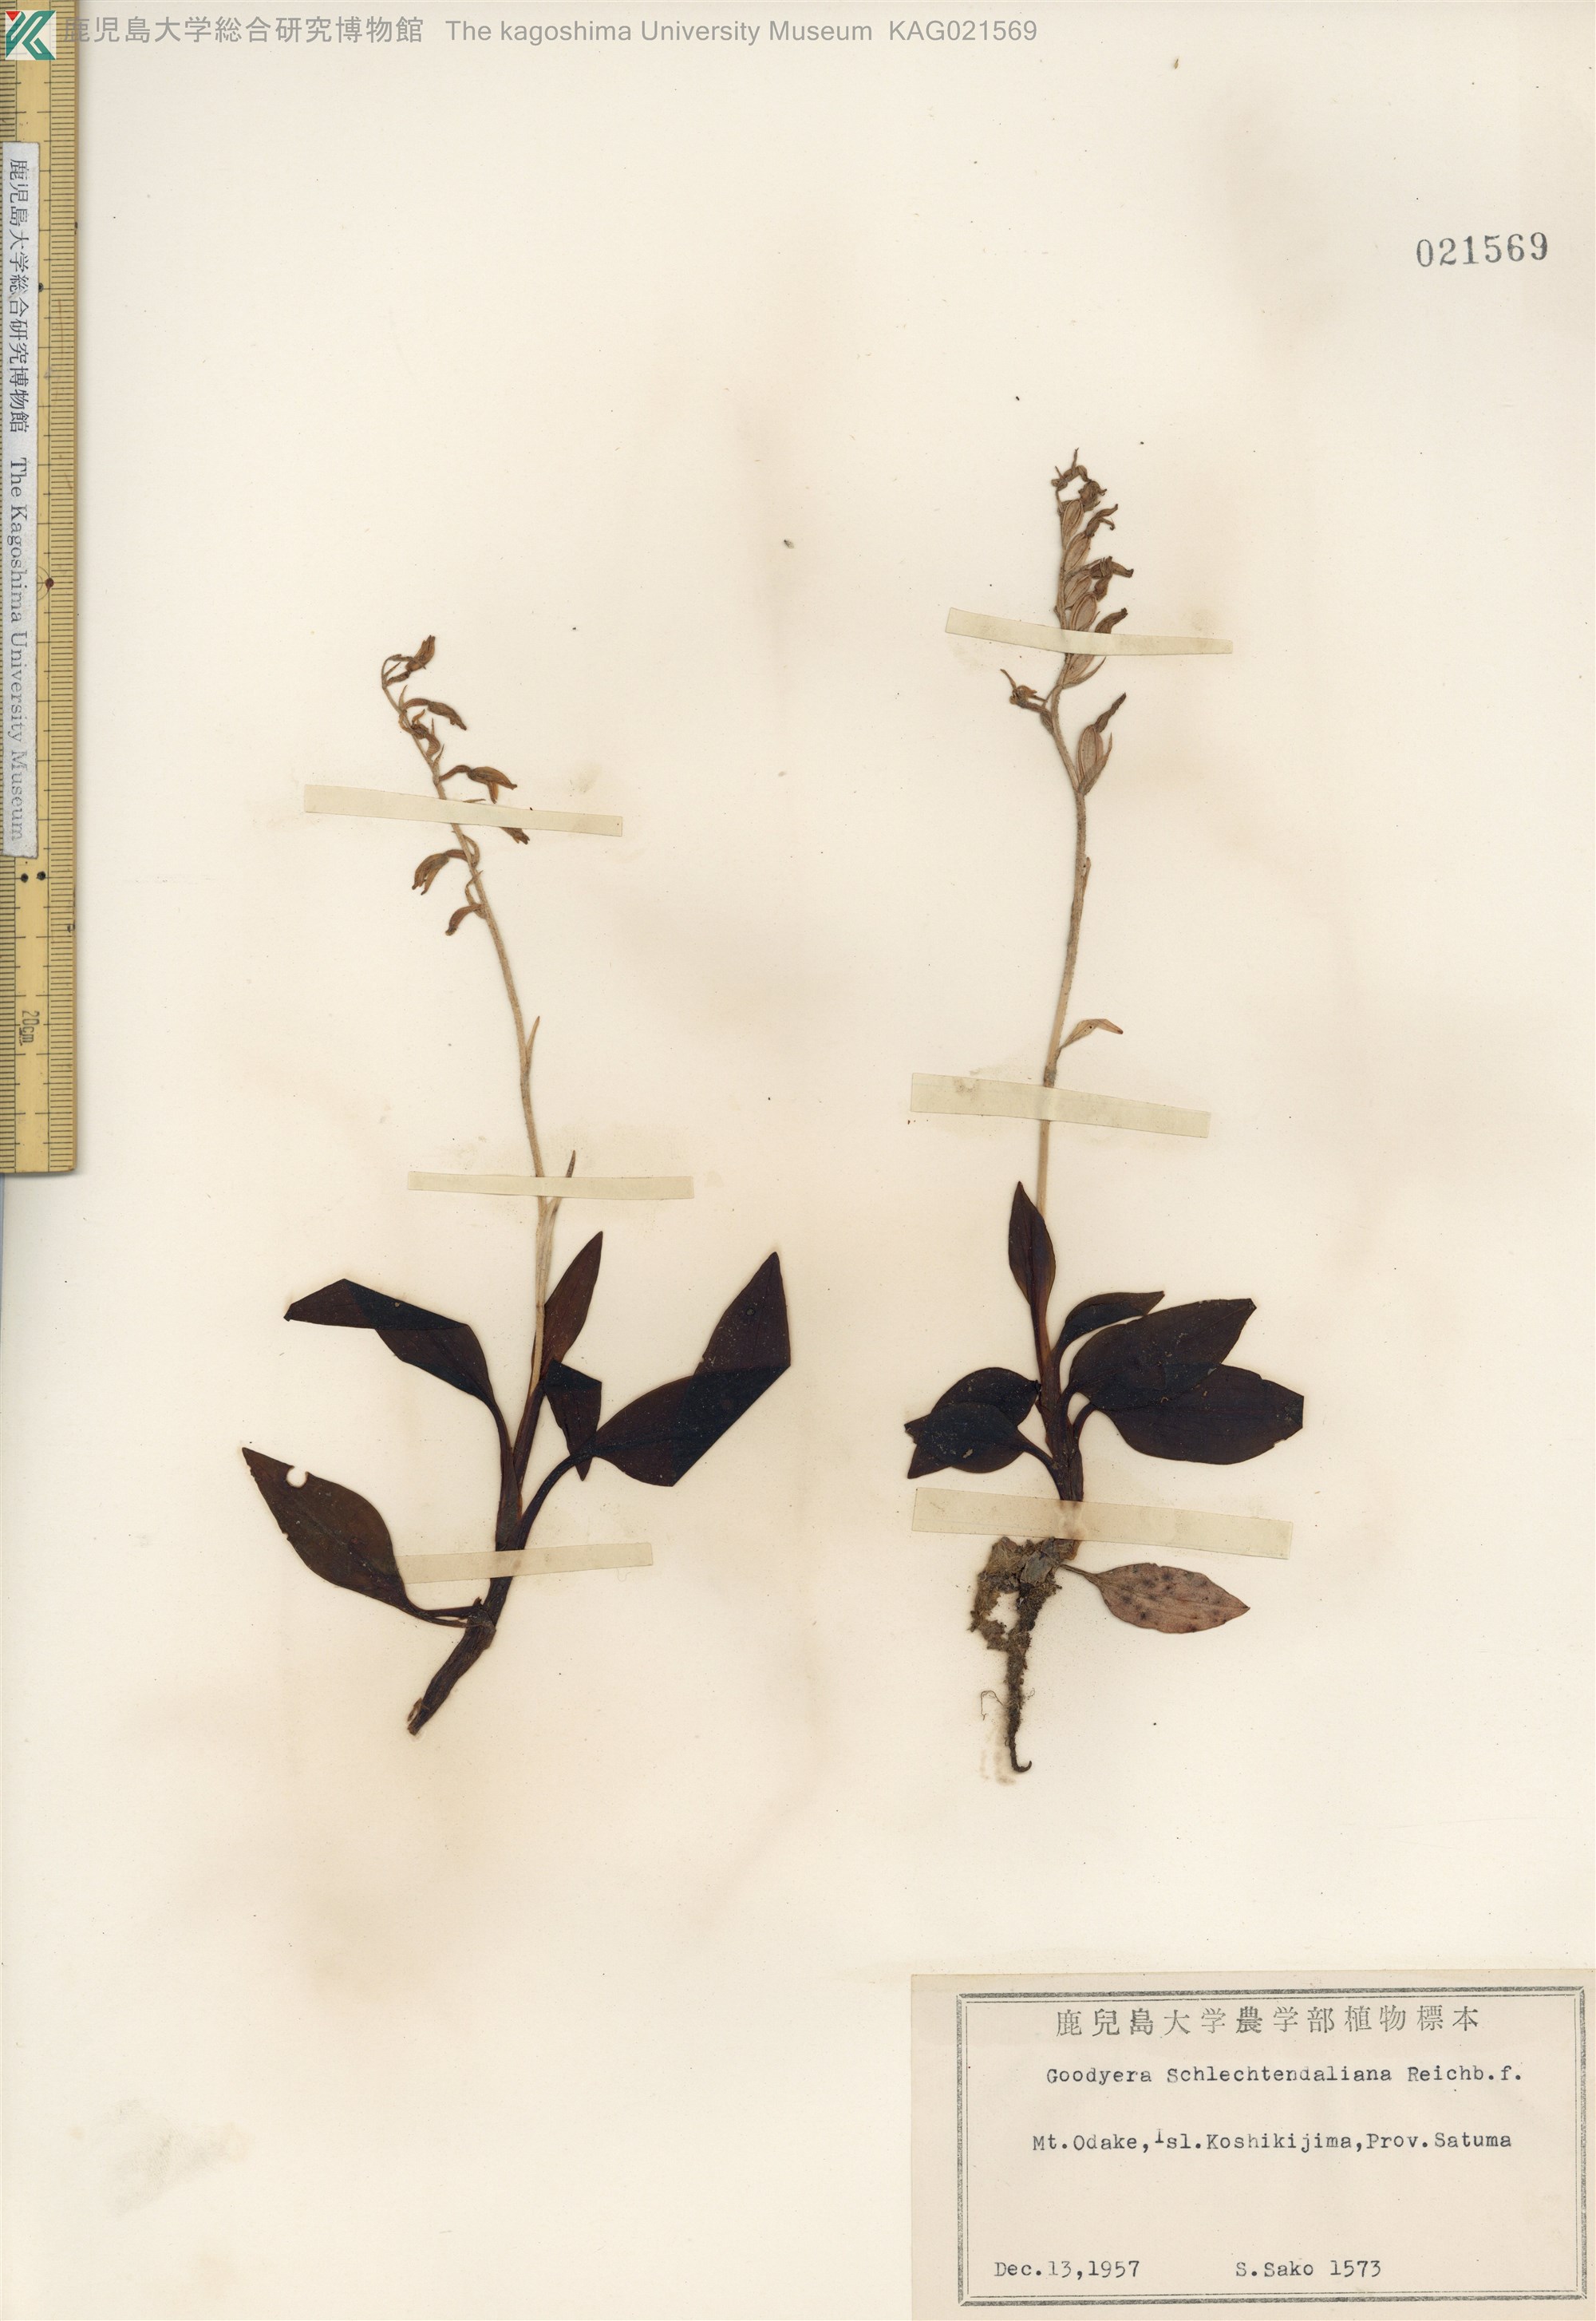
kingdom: Plantae
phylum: Tracheophyta
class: Liliopsida
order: Asparagales
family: Orchidaceae
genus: Goodyera
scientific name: Goodyera schlechtendaliana
